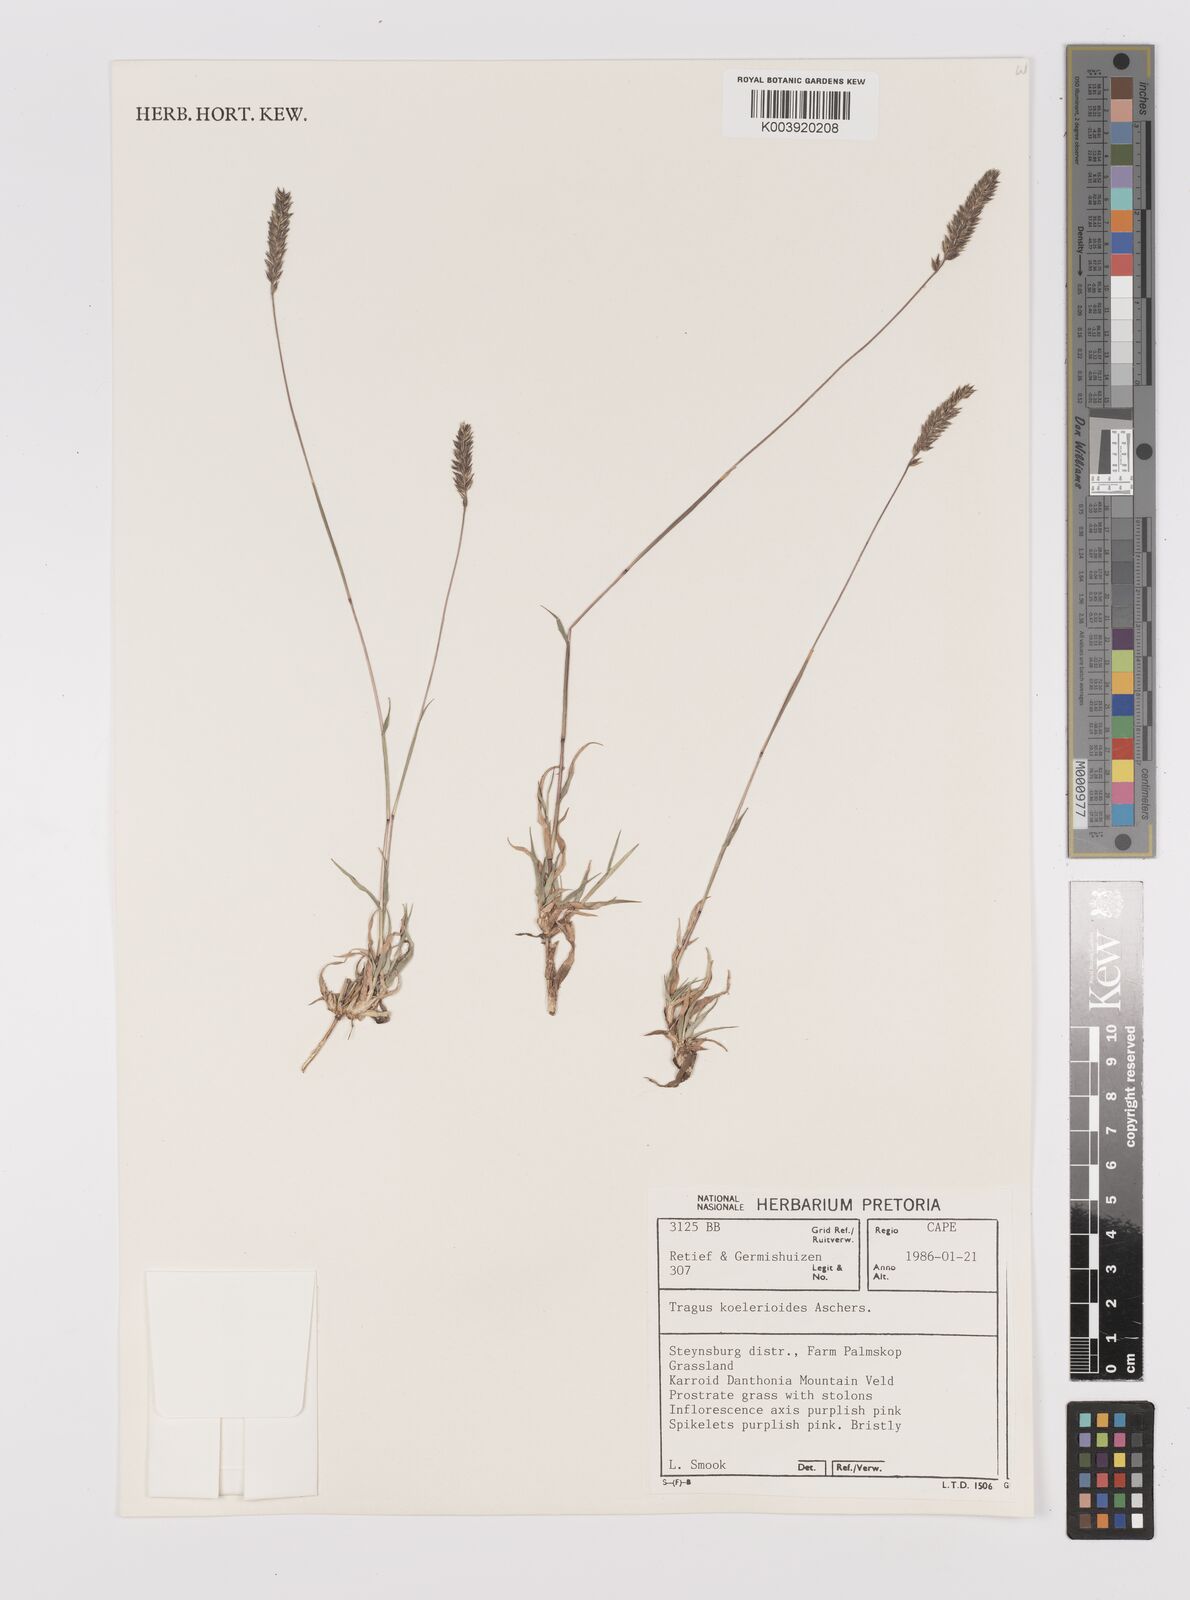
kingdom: Plantae
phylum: Tracheophyta
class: Liliopsida
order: Poales
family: Poaceae
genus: Tragus
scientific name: Tragus koelerioides
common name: Creeping carrot-seed grass
